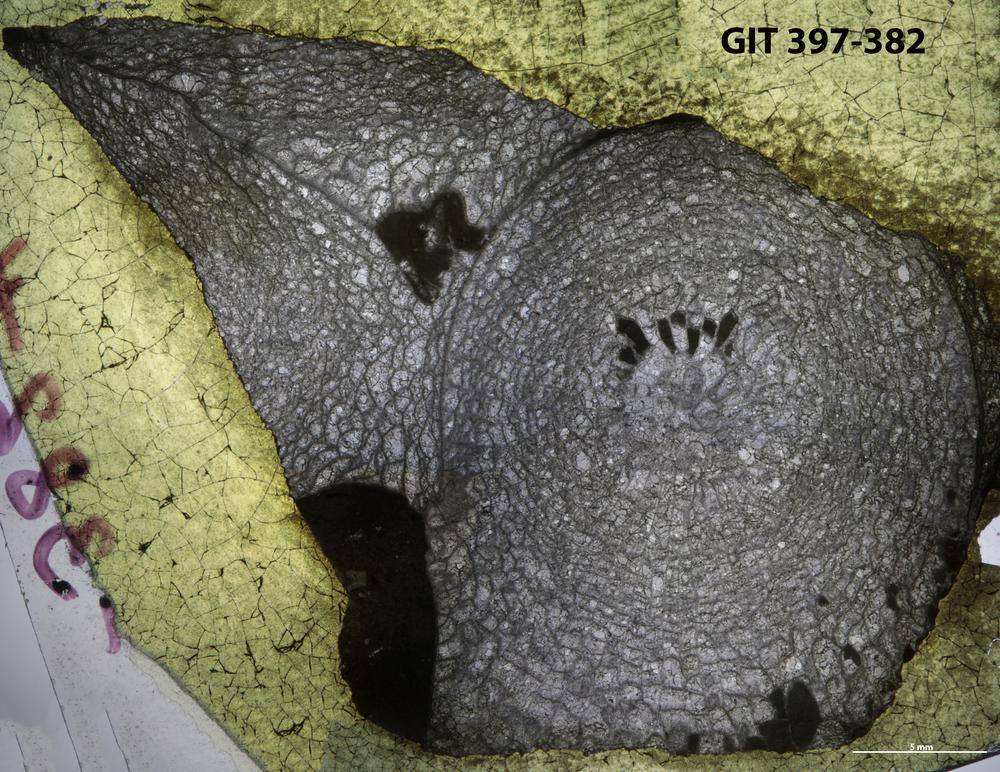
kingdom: Animalia
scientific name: Animalia
